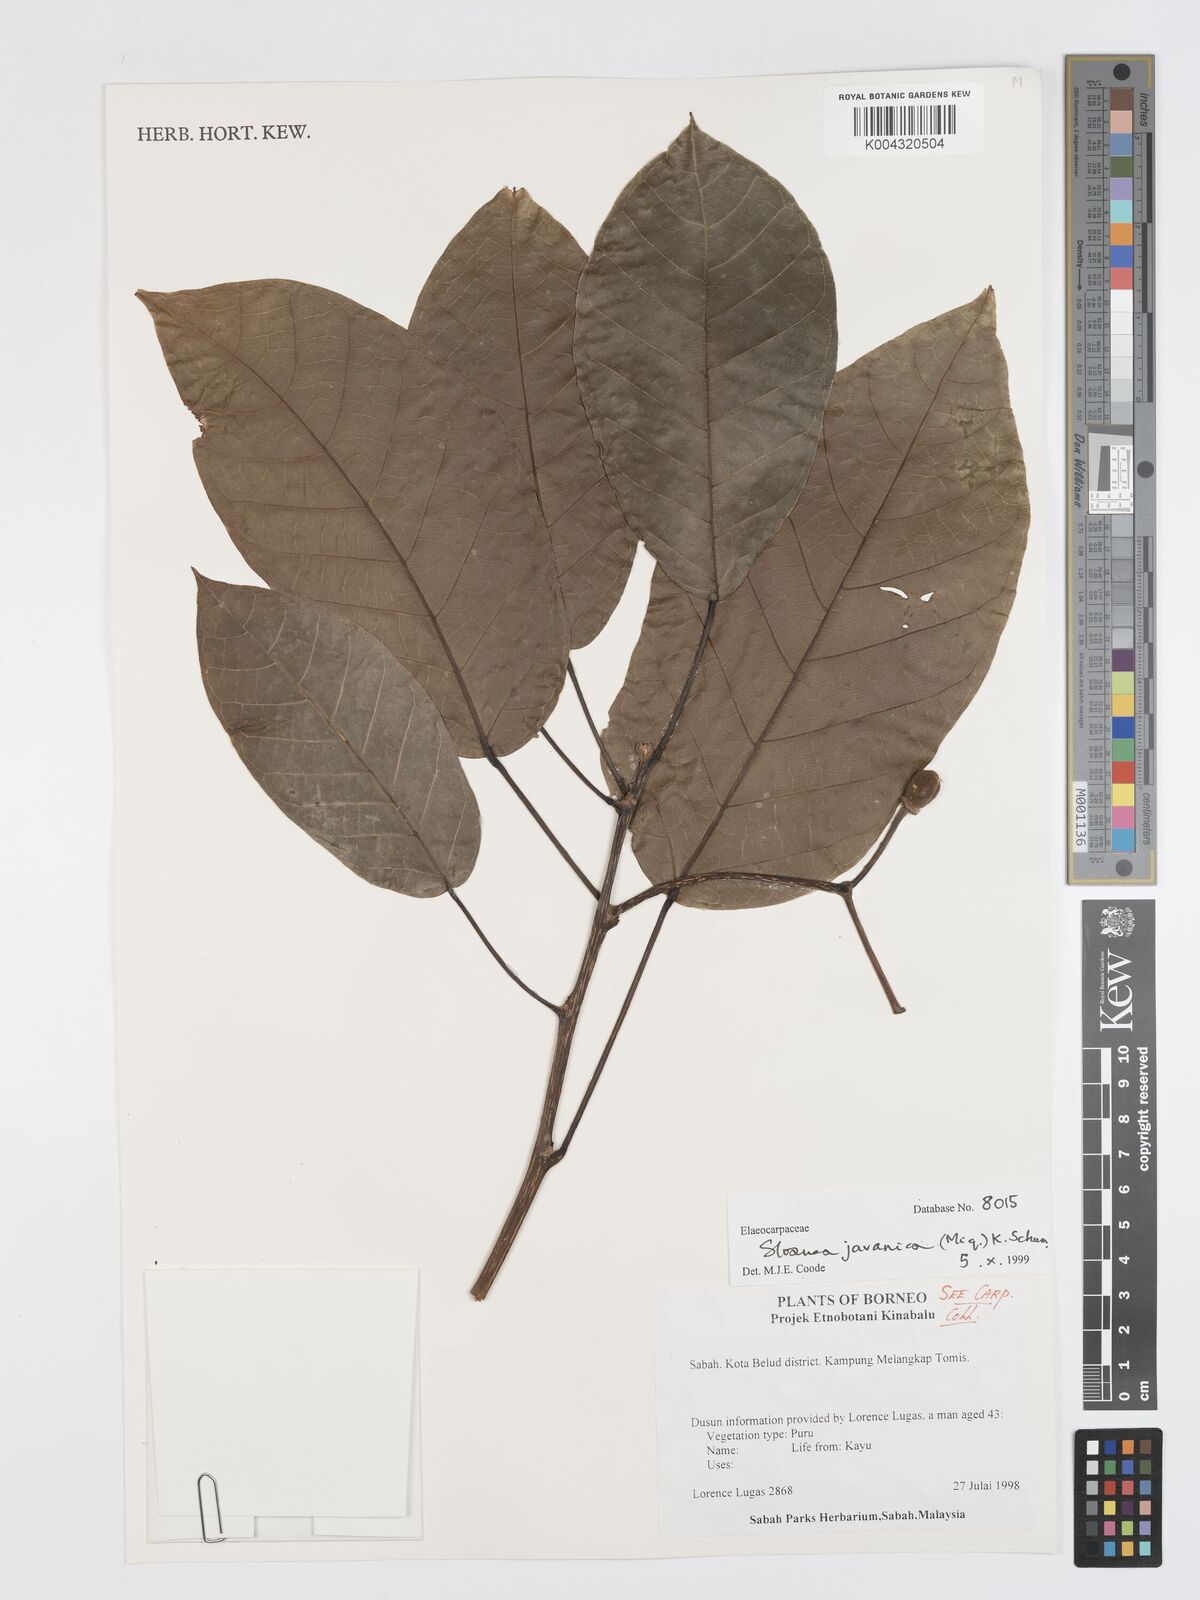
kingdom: Plantae
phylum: Tracheophyta
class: Magnoliopsida
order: Oxalidales
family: Elaeocarpaceae
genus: Sloanea
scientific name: Sloanea javanica
